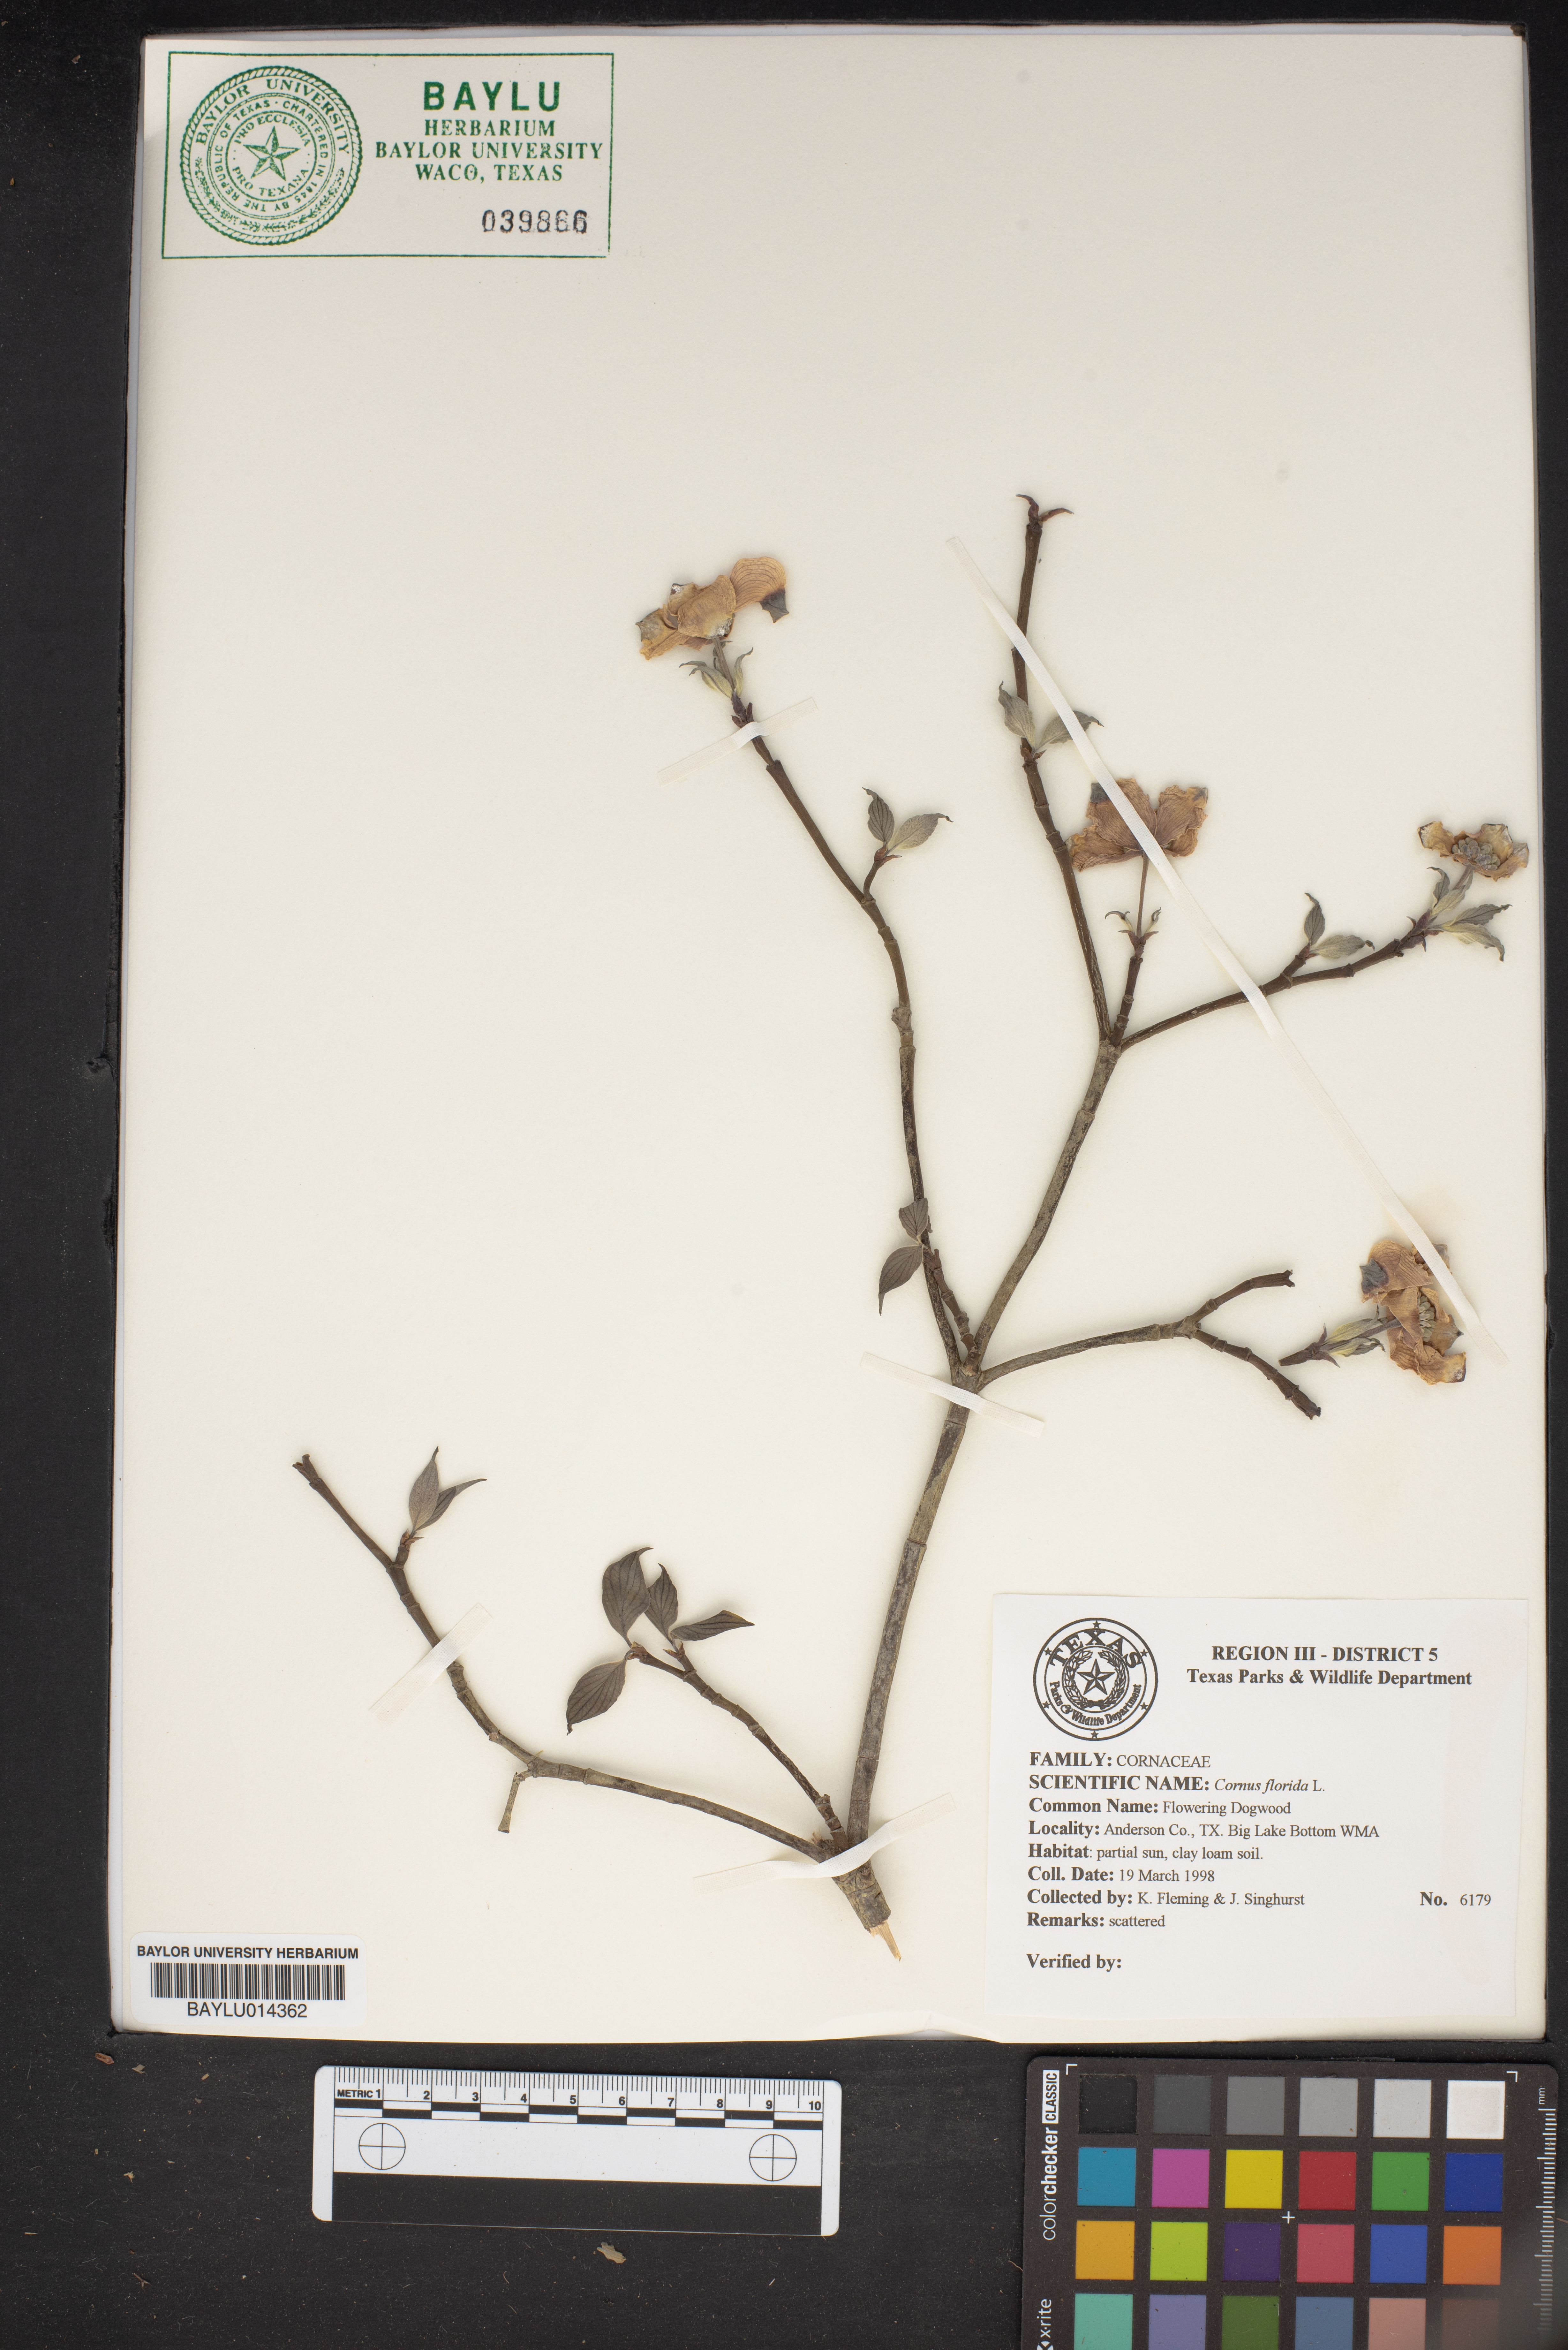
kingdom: Plantae
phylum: Tracheophyta
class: Magnoliopsida
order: Cornales
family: Cornaceae
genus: Cornus
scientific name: Cornus florida
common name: Flowering dogwood
